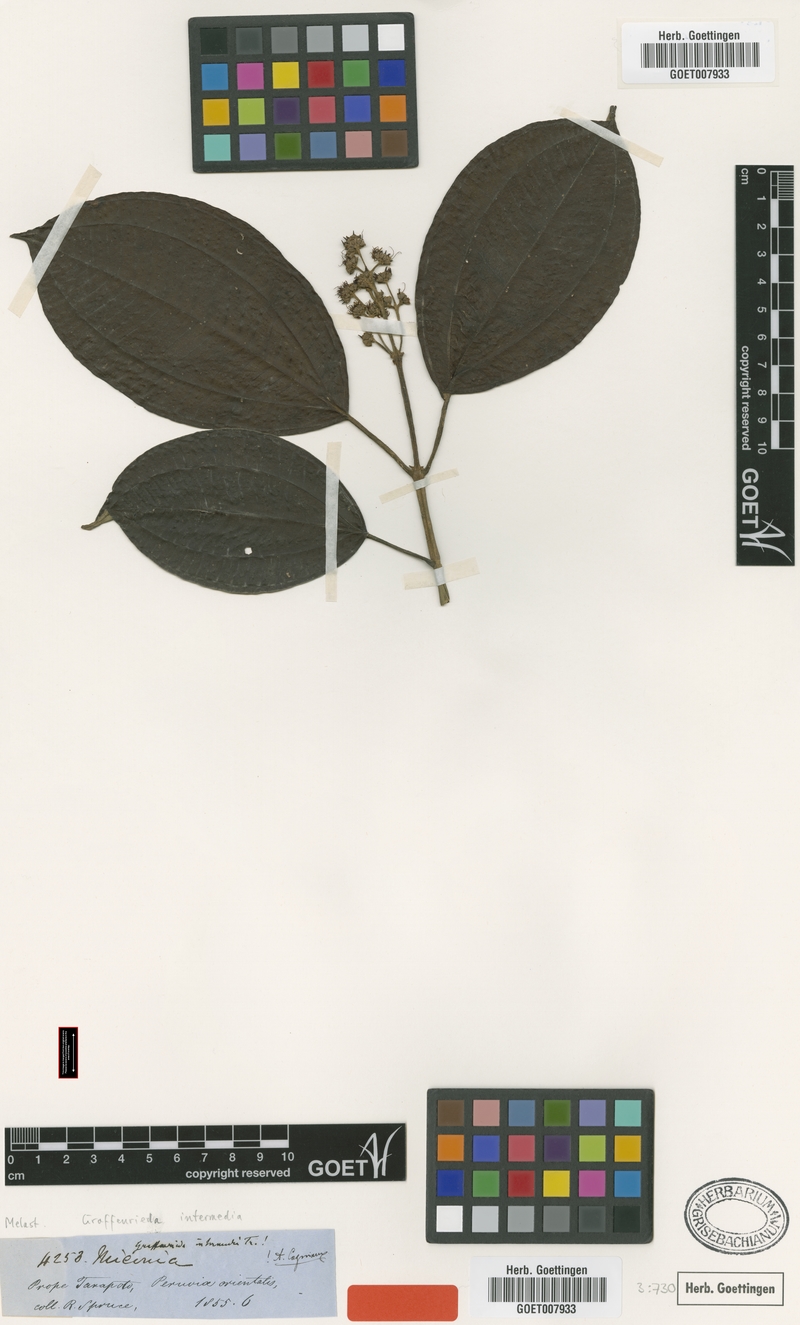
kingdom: Plantae
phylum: Tracheophyta
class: Magnoliopsida
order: Myrtales
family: Melastomataceae
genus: Graffenrieda
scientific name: Graffenrieda intermedia
